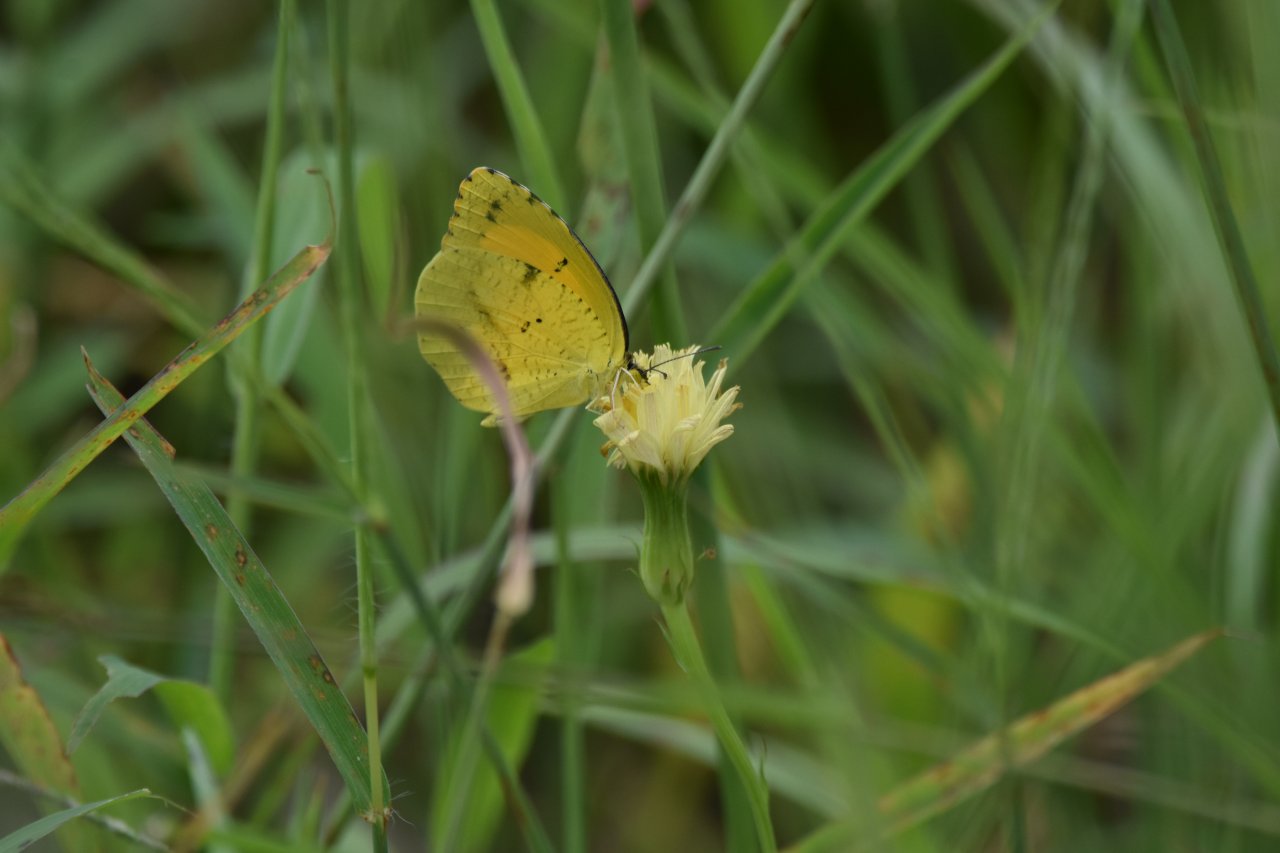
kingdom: Animalia
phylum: Arthropoda
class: Insecta
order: Lepidoptera
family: Pieridae
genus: Abaeis
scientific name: Abaeis nicippe
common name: Sleepy Orange
